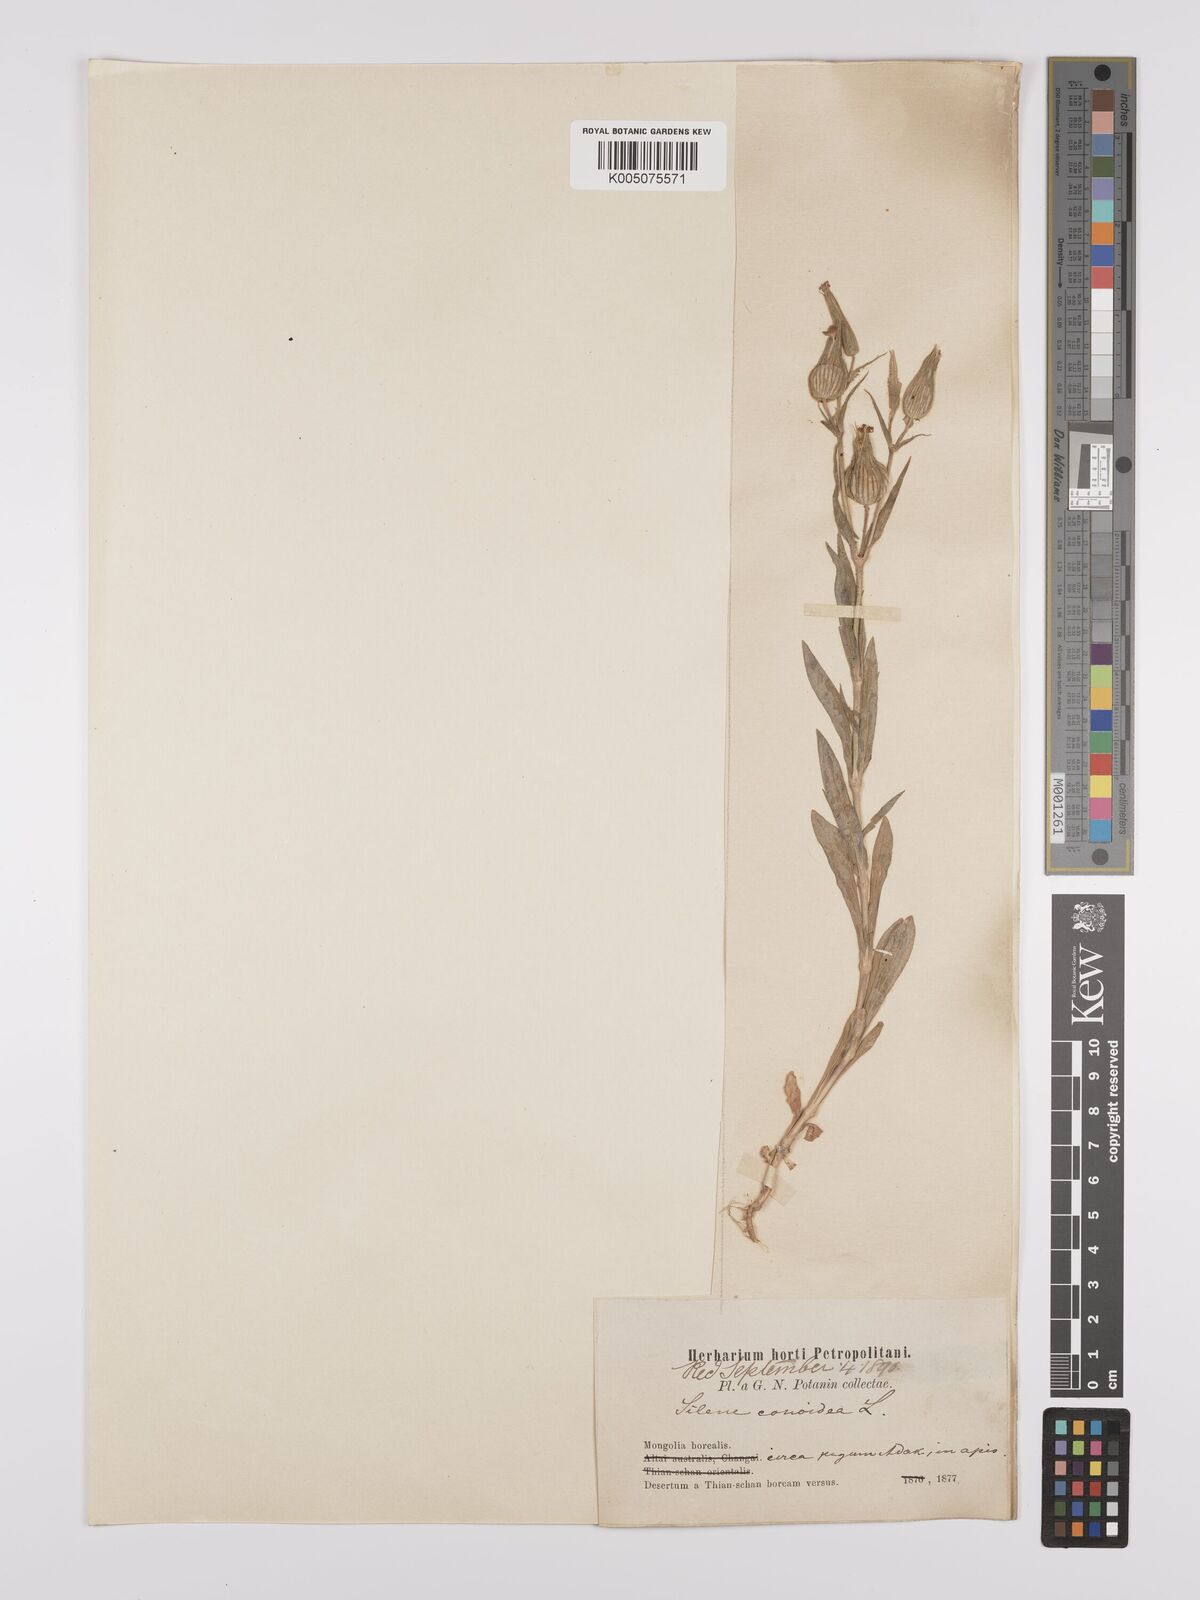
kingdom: Plantae
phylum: Tracheophyta
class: Magnoliopsida
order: Caryophyllales
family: Caryophyllaceae
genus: Silene
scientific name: Silene
